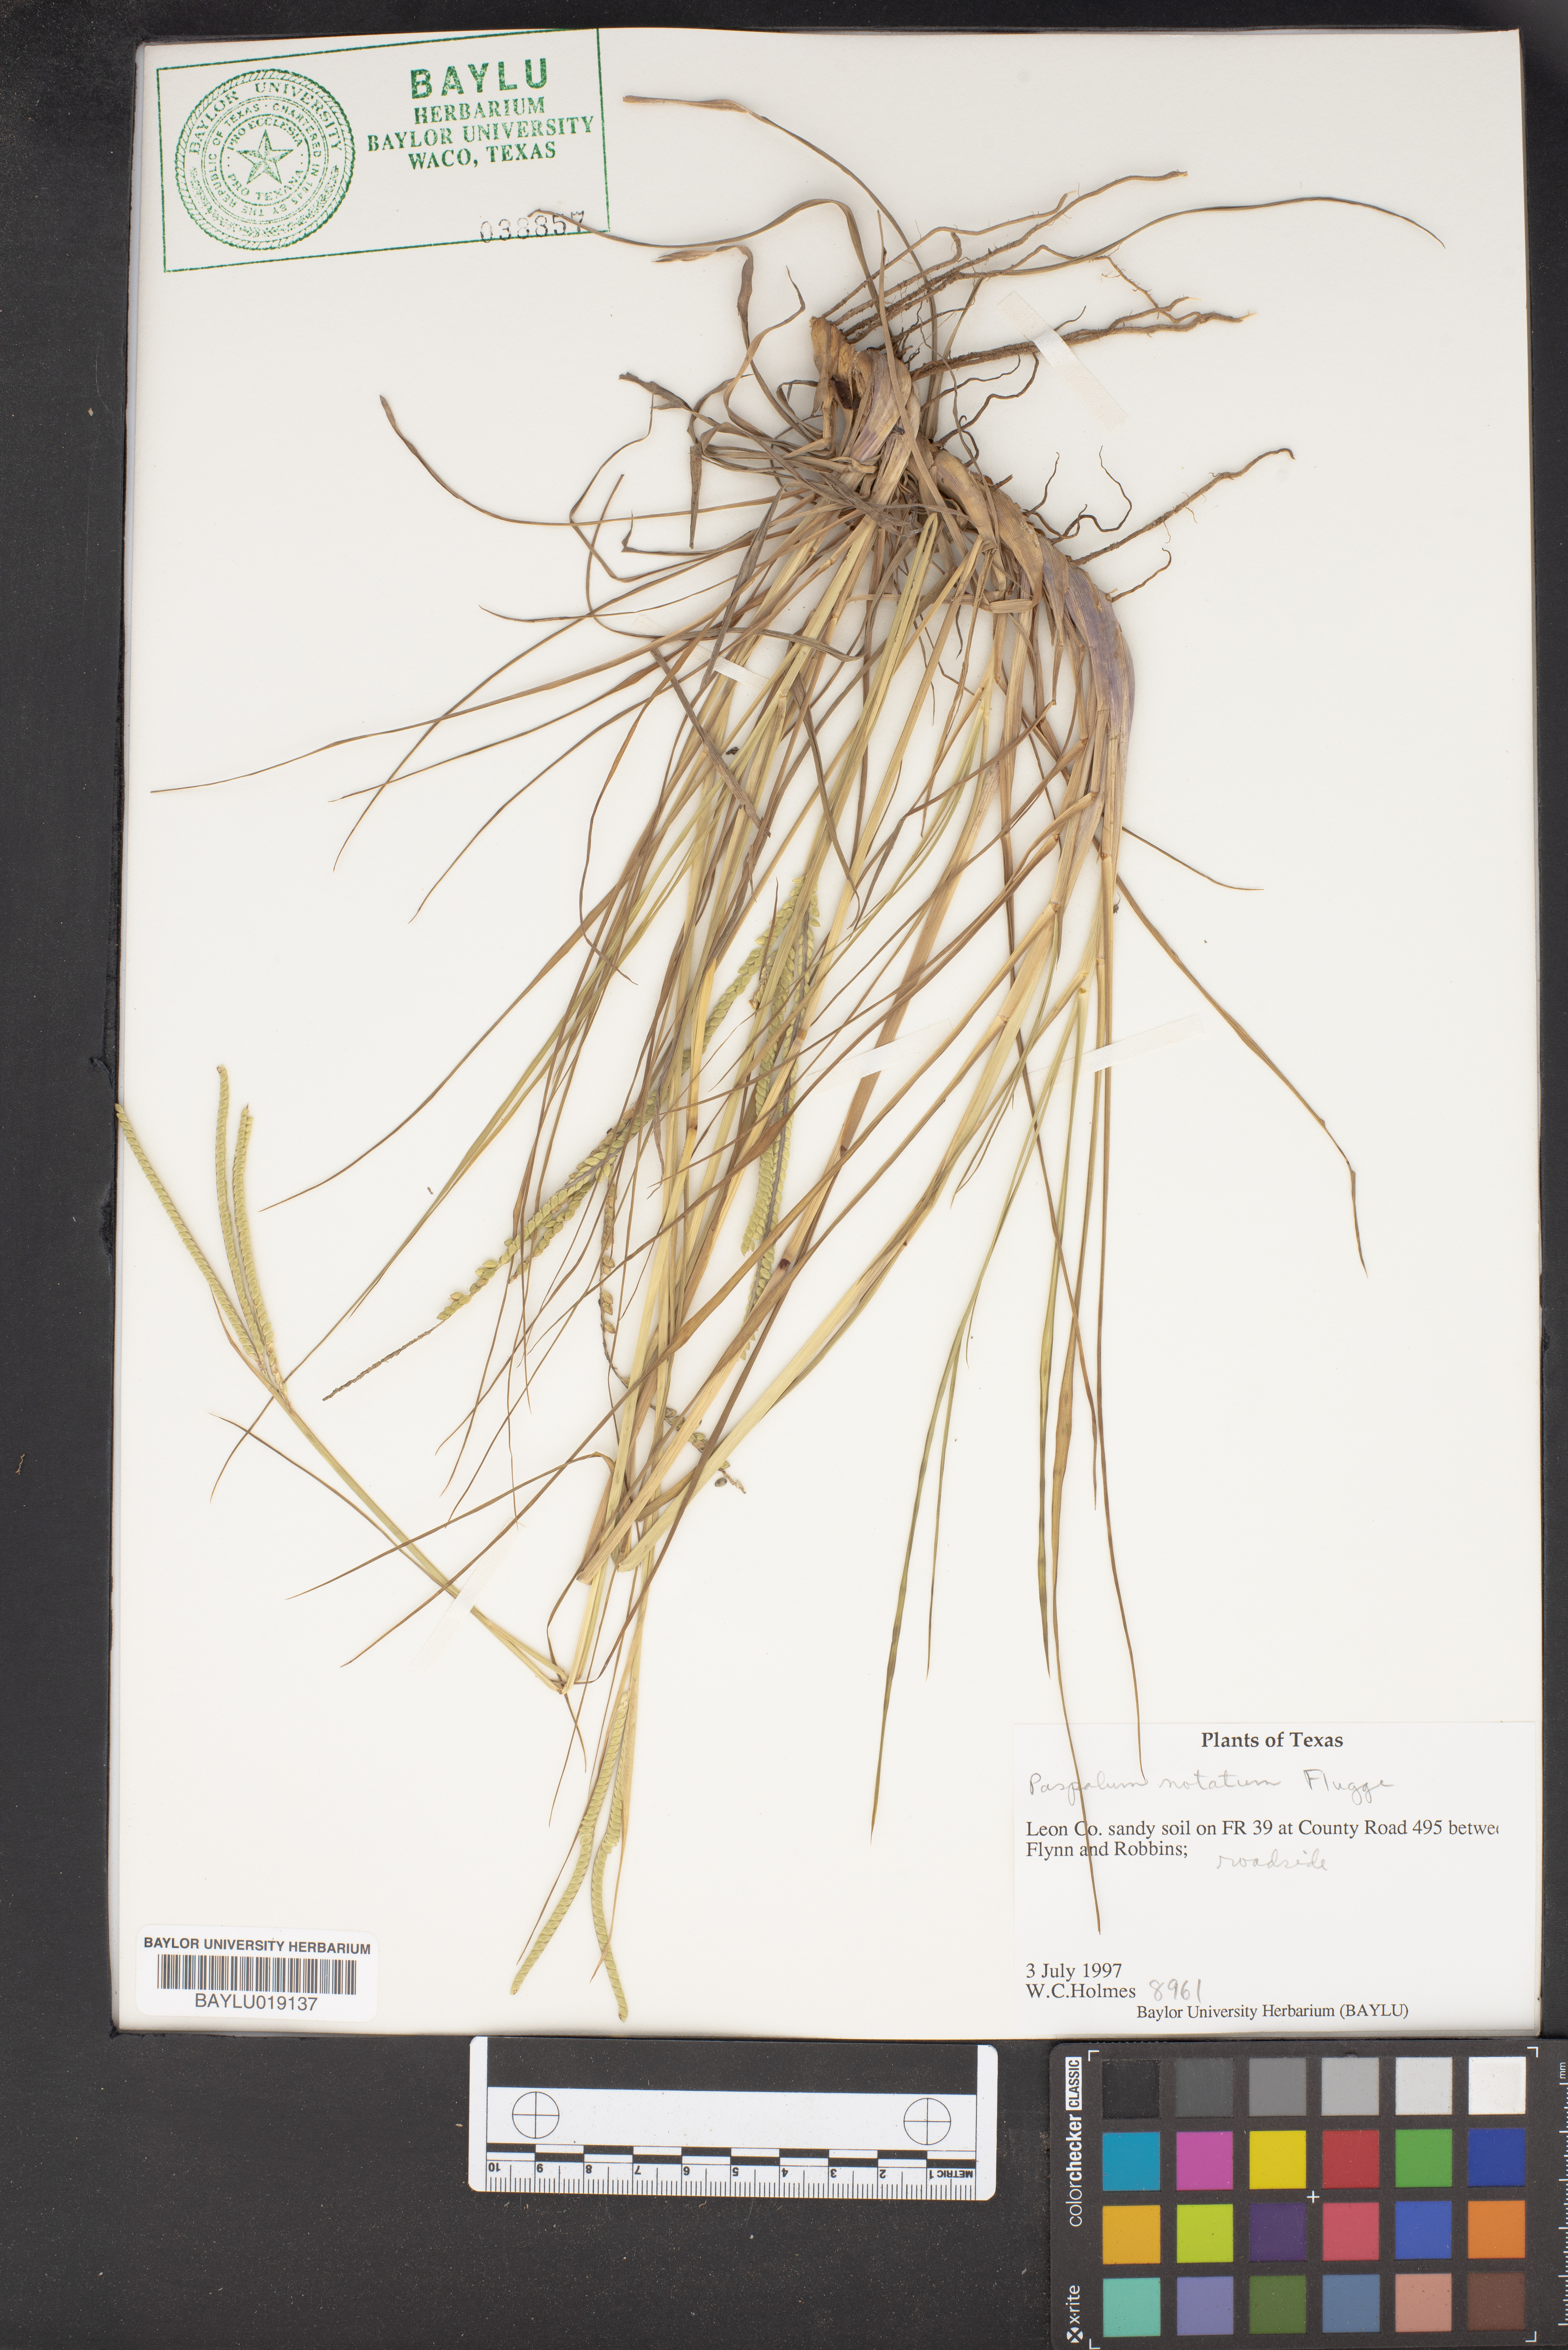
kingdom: Plantae
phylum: Tracheophyta
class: Liliopsida
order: Poales
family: Poaceae
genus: Paspalum
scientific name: Paspalum notatum
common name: Bahiagrass
